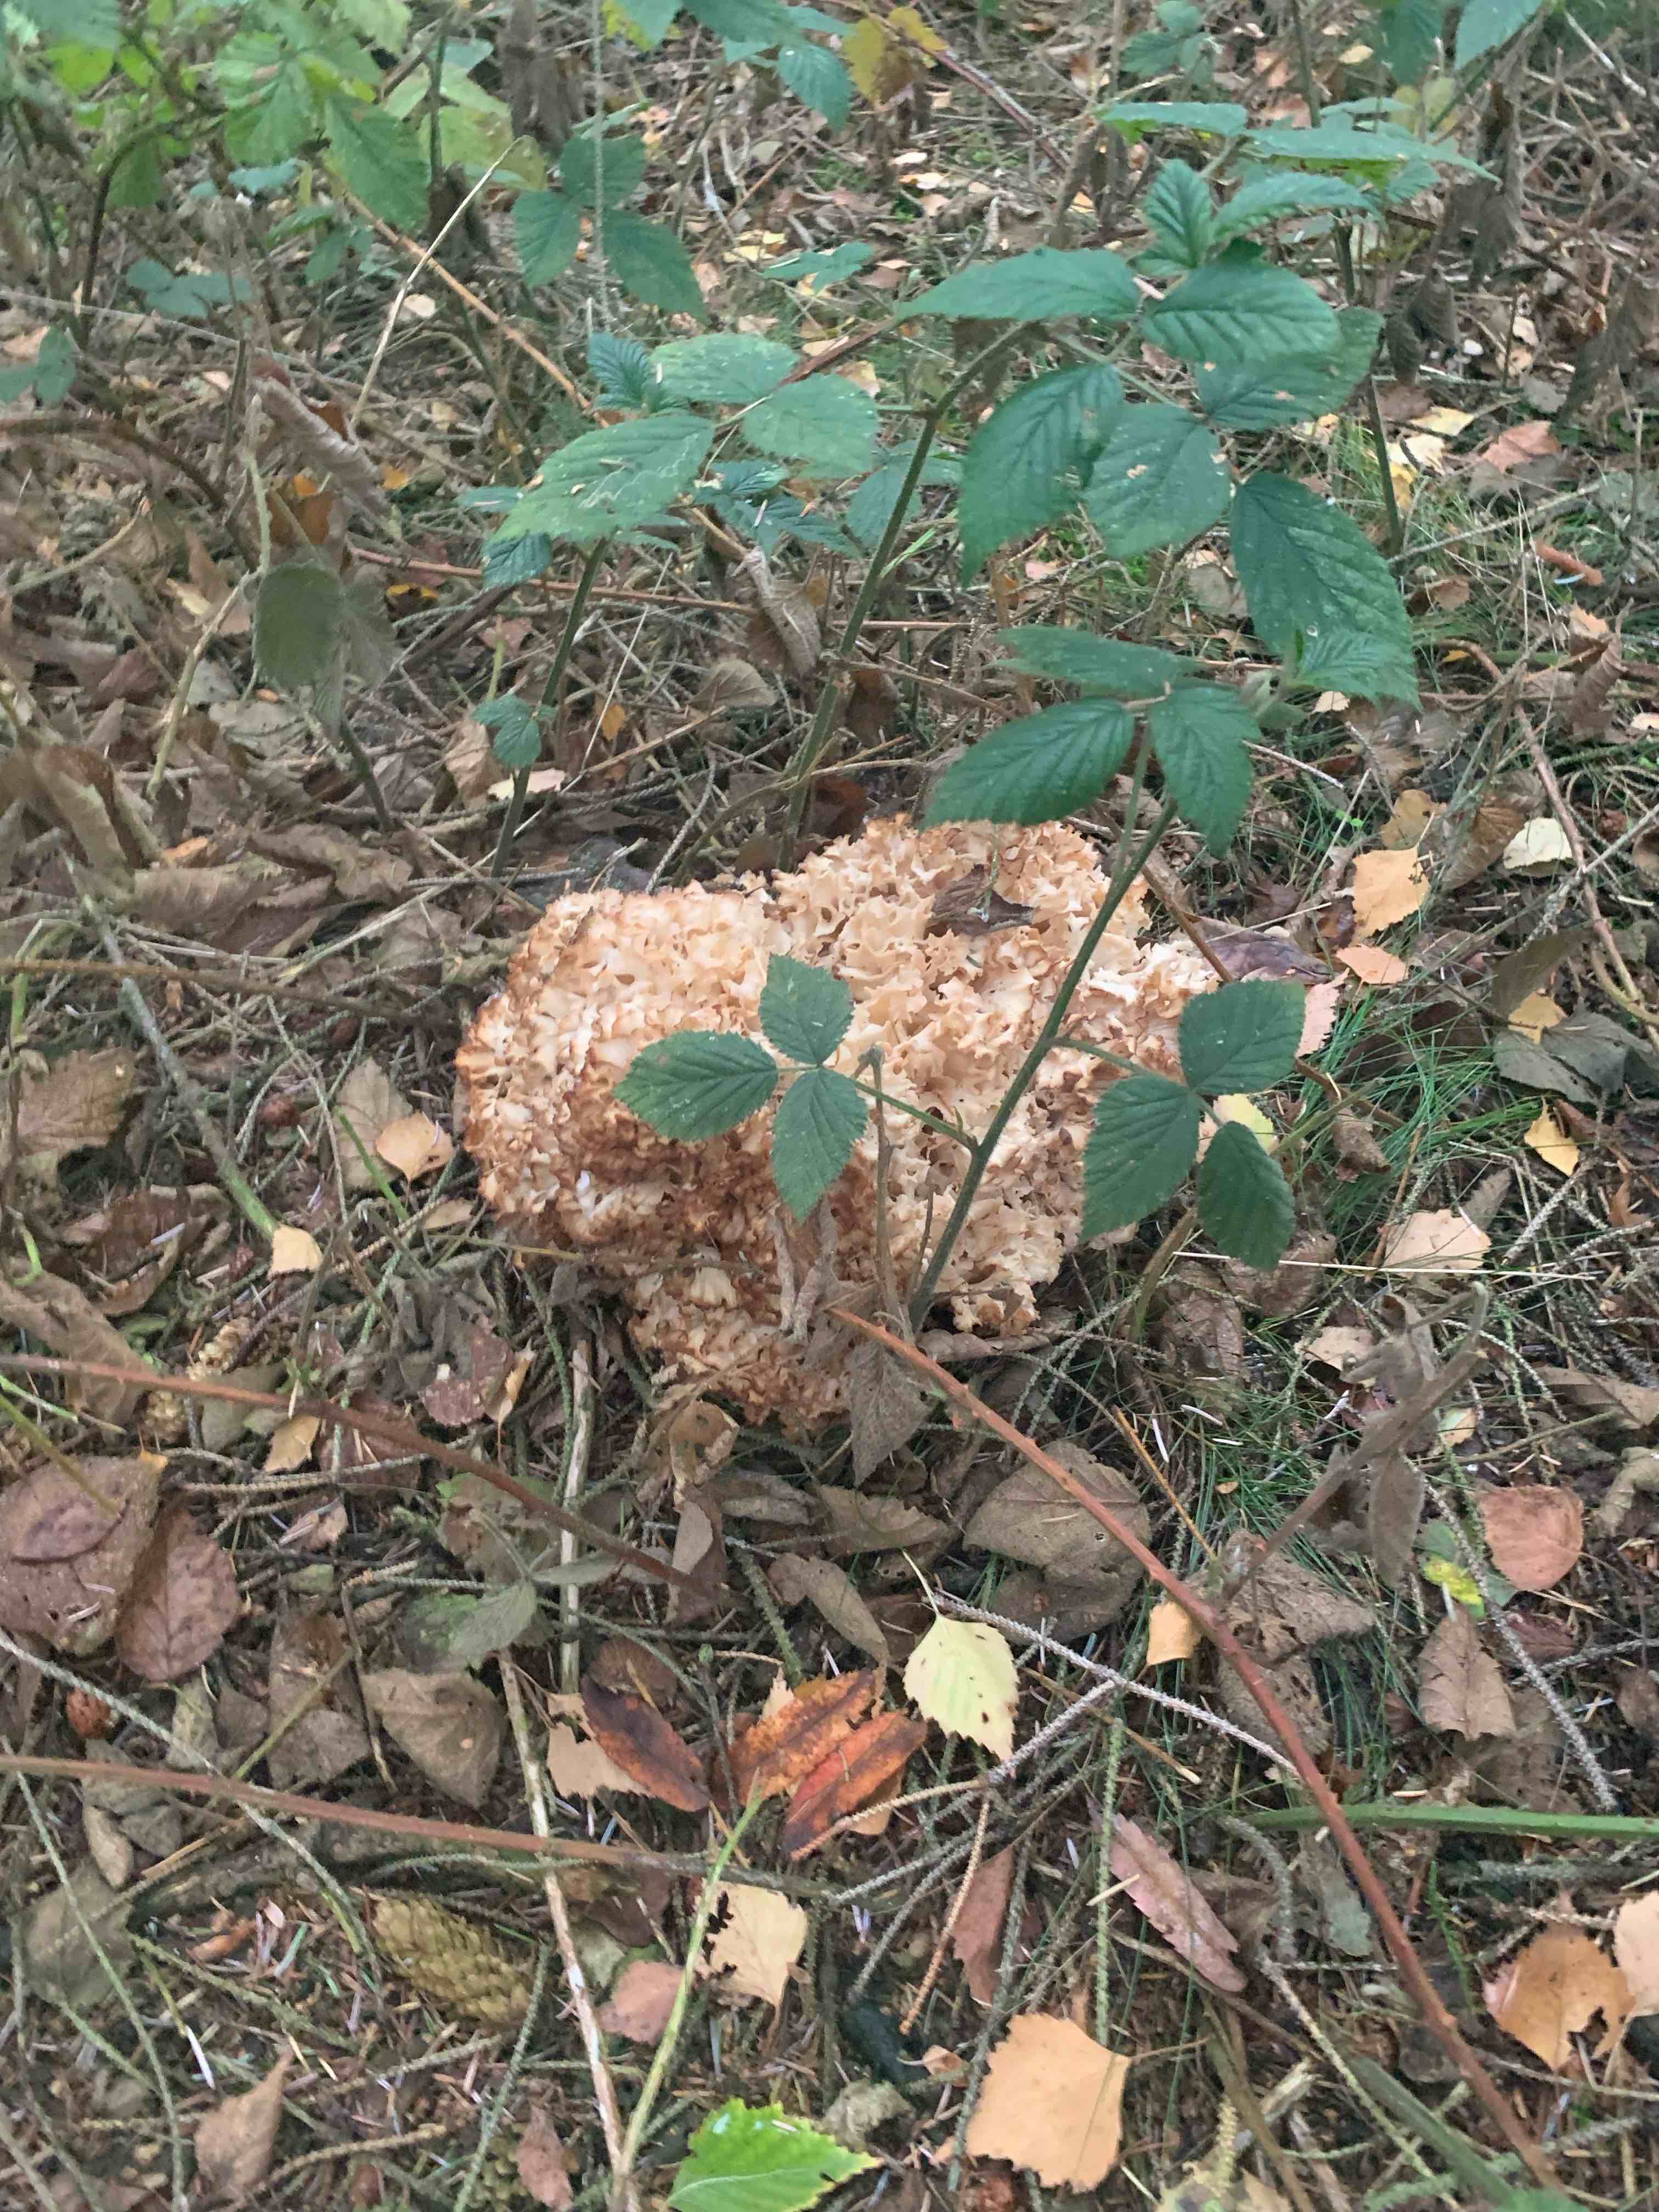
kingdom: Fungi
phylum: Basidiomycota
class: Agaricomycetes
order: Polyporales
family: Sparassidaceae
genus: Sparassis
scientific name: Sparassis crispa
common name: kruset blomkålssvamp
